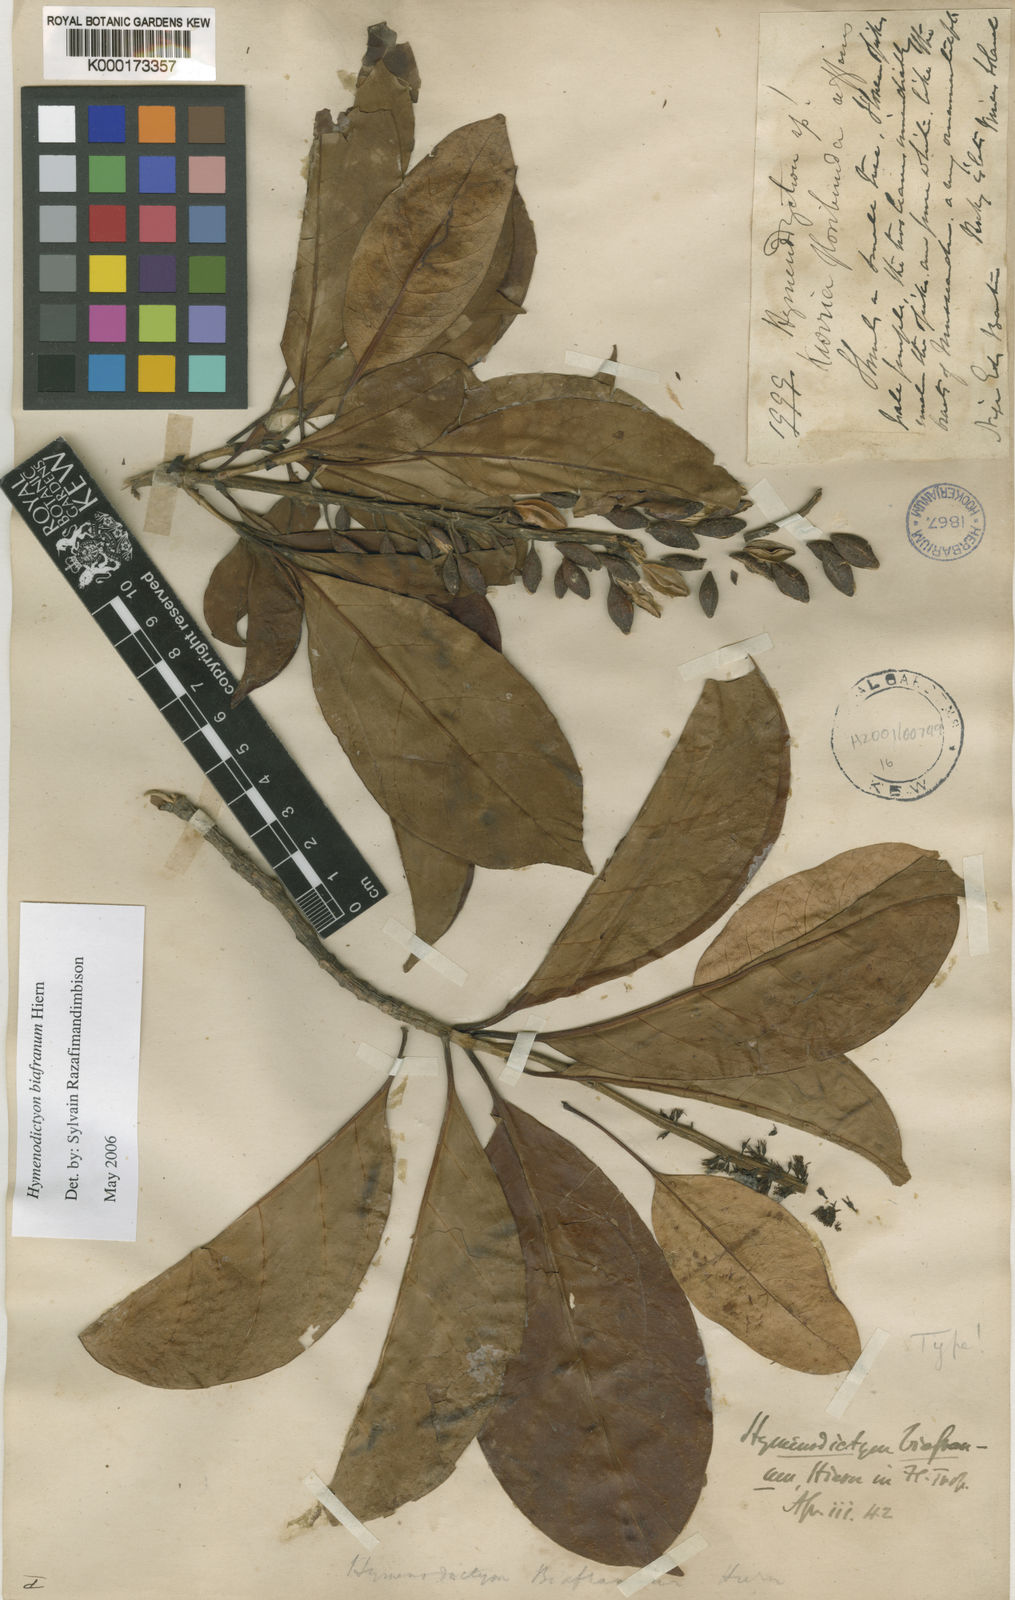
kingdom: Plantae
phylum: Tracheophyta
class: Magnoliopsida
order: Gentianales
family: Rubiaceae
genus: Hymenodictyon
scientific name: Hymenodictyon biafranum
